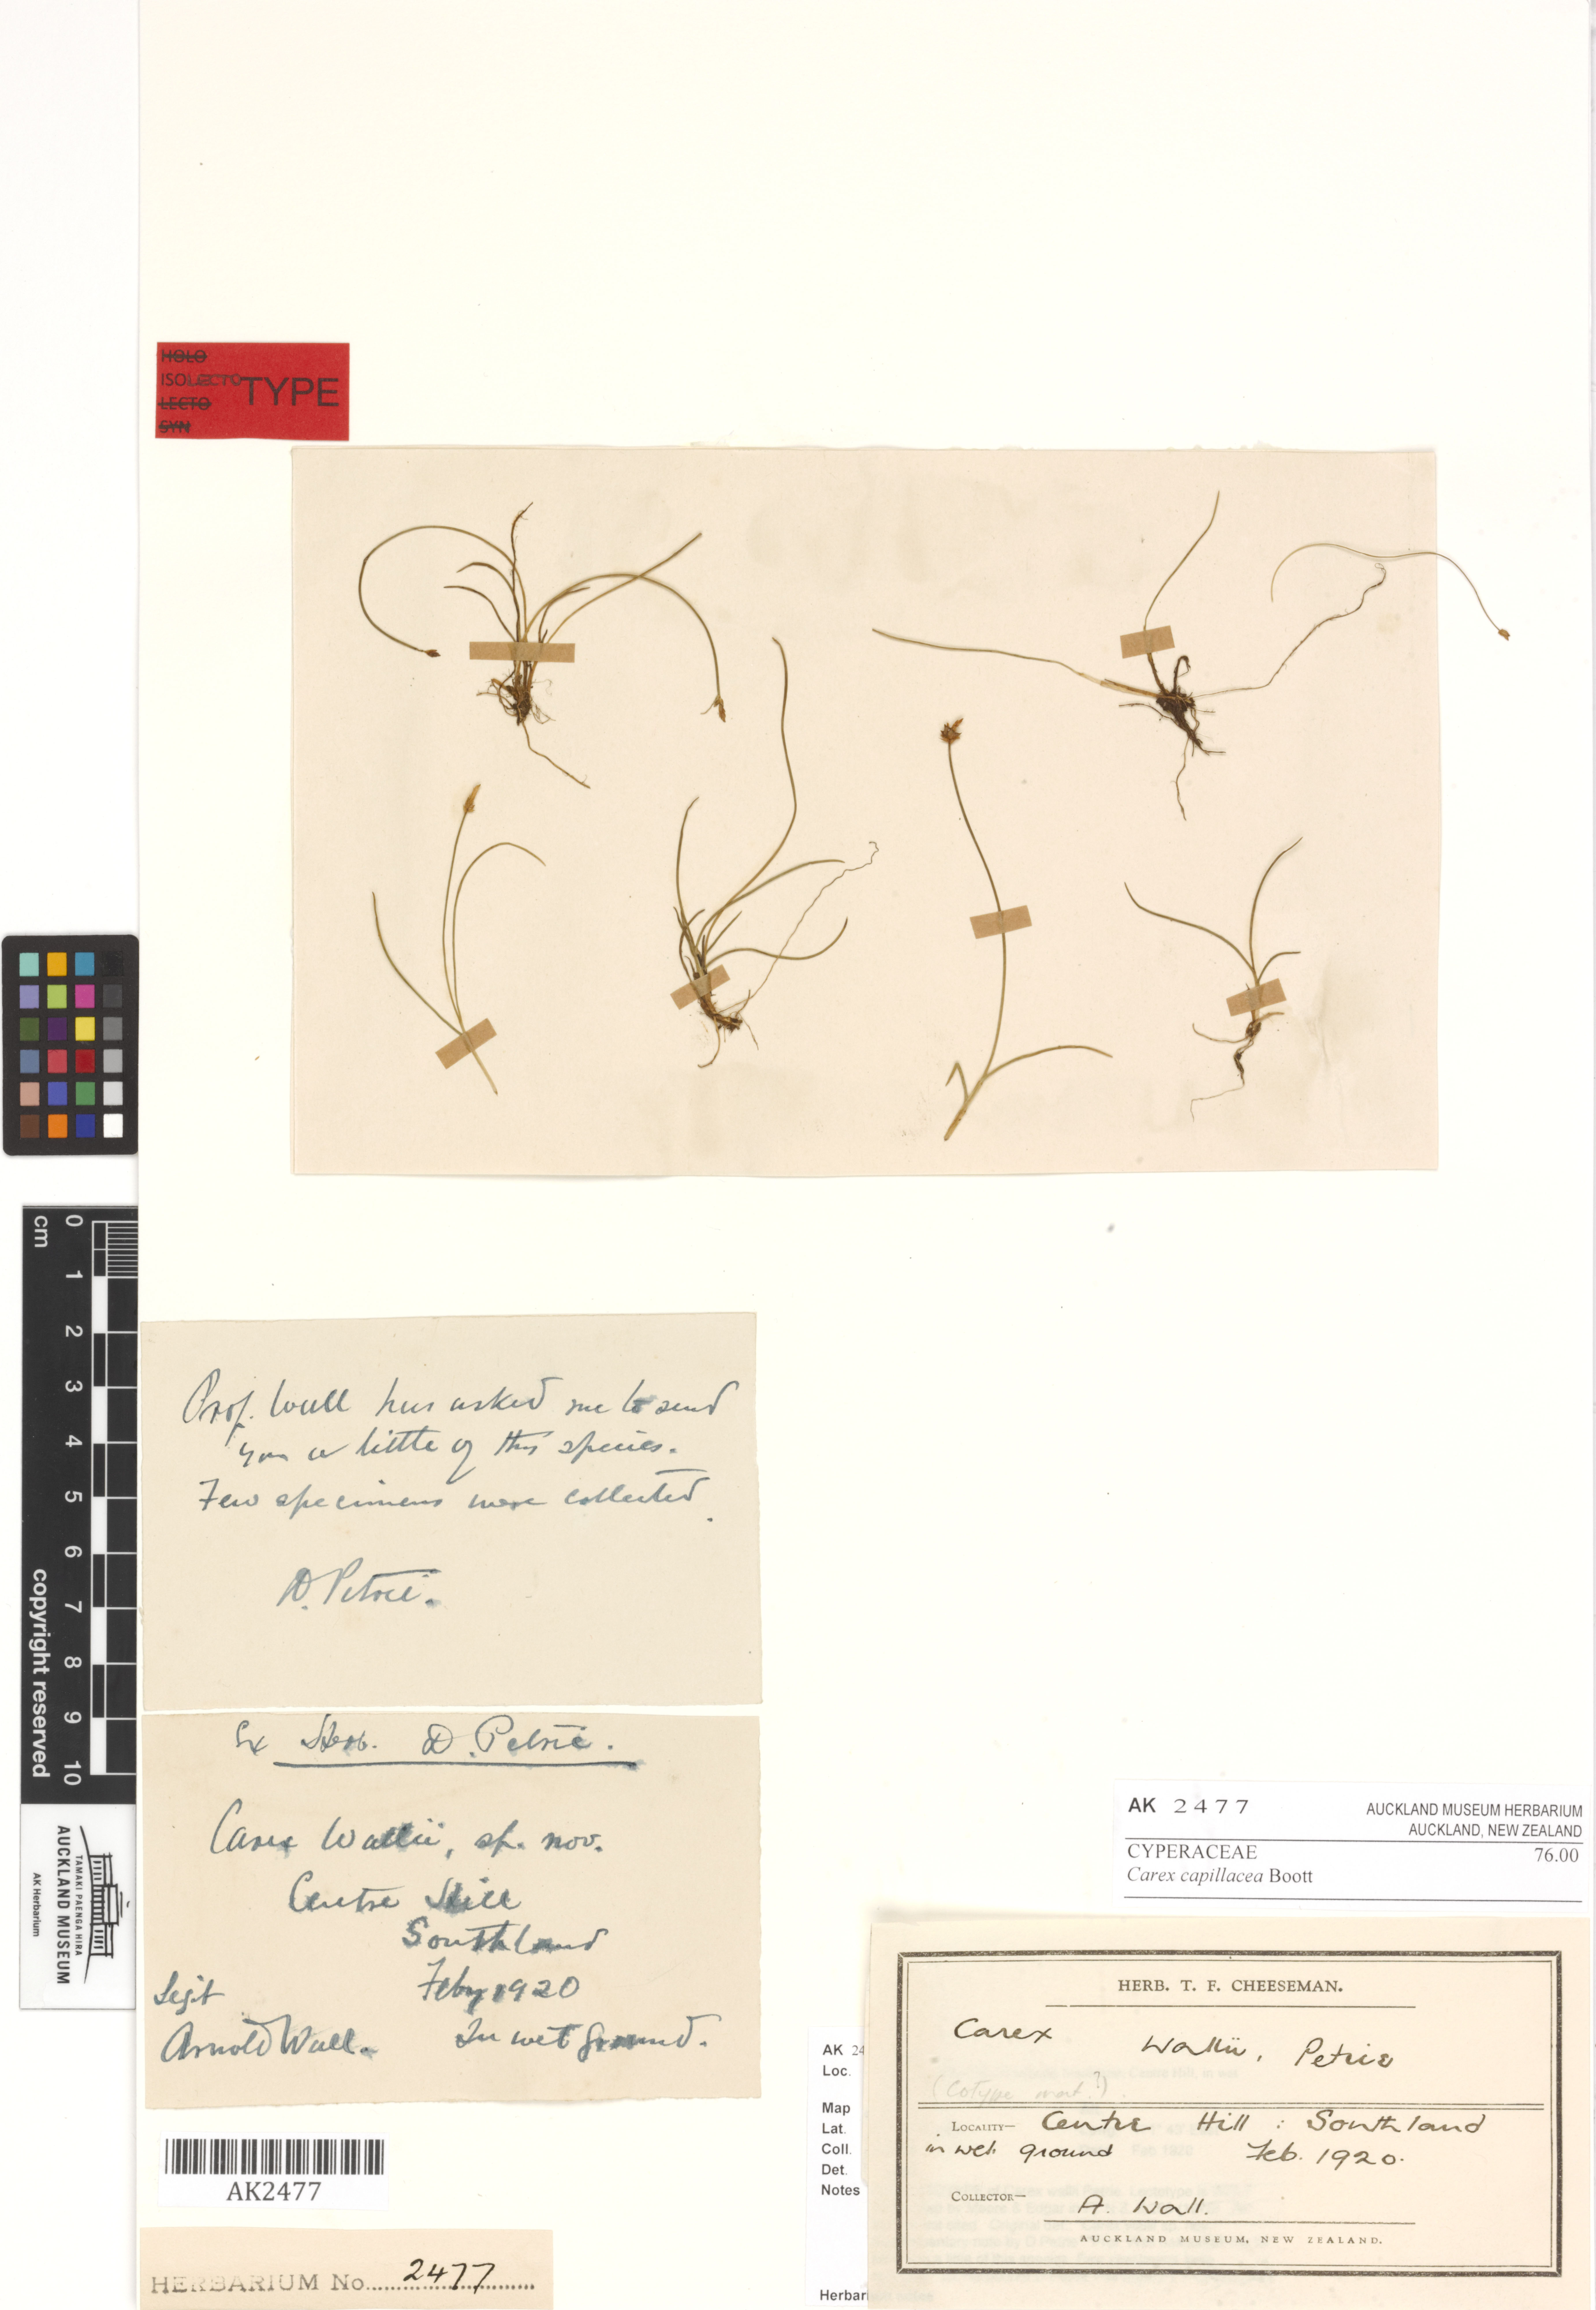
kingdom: Plantae
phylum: Tracheophyta
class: Liliopsida
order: Poales
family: Cyperaceae
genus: Carex
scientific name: Carex capillacea
